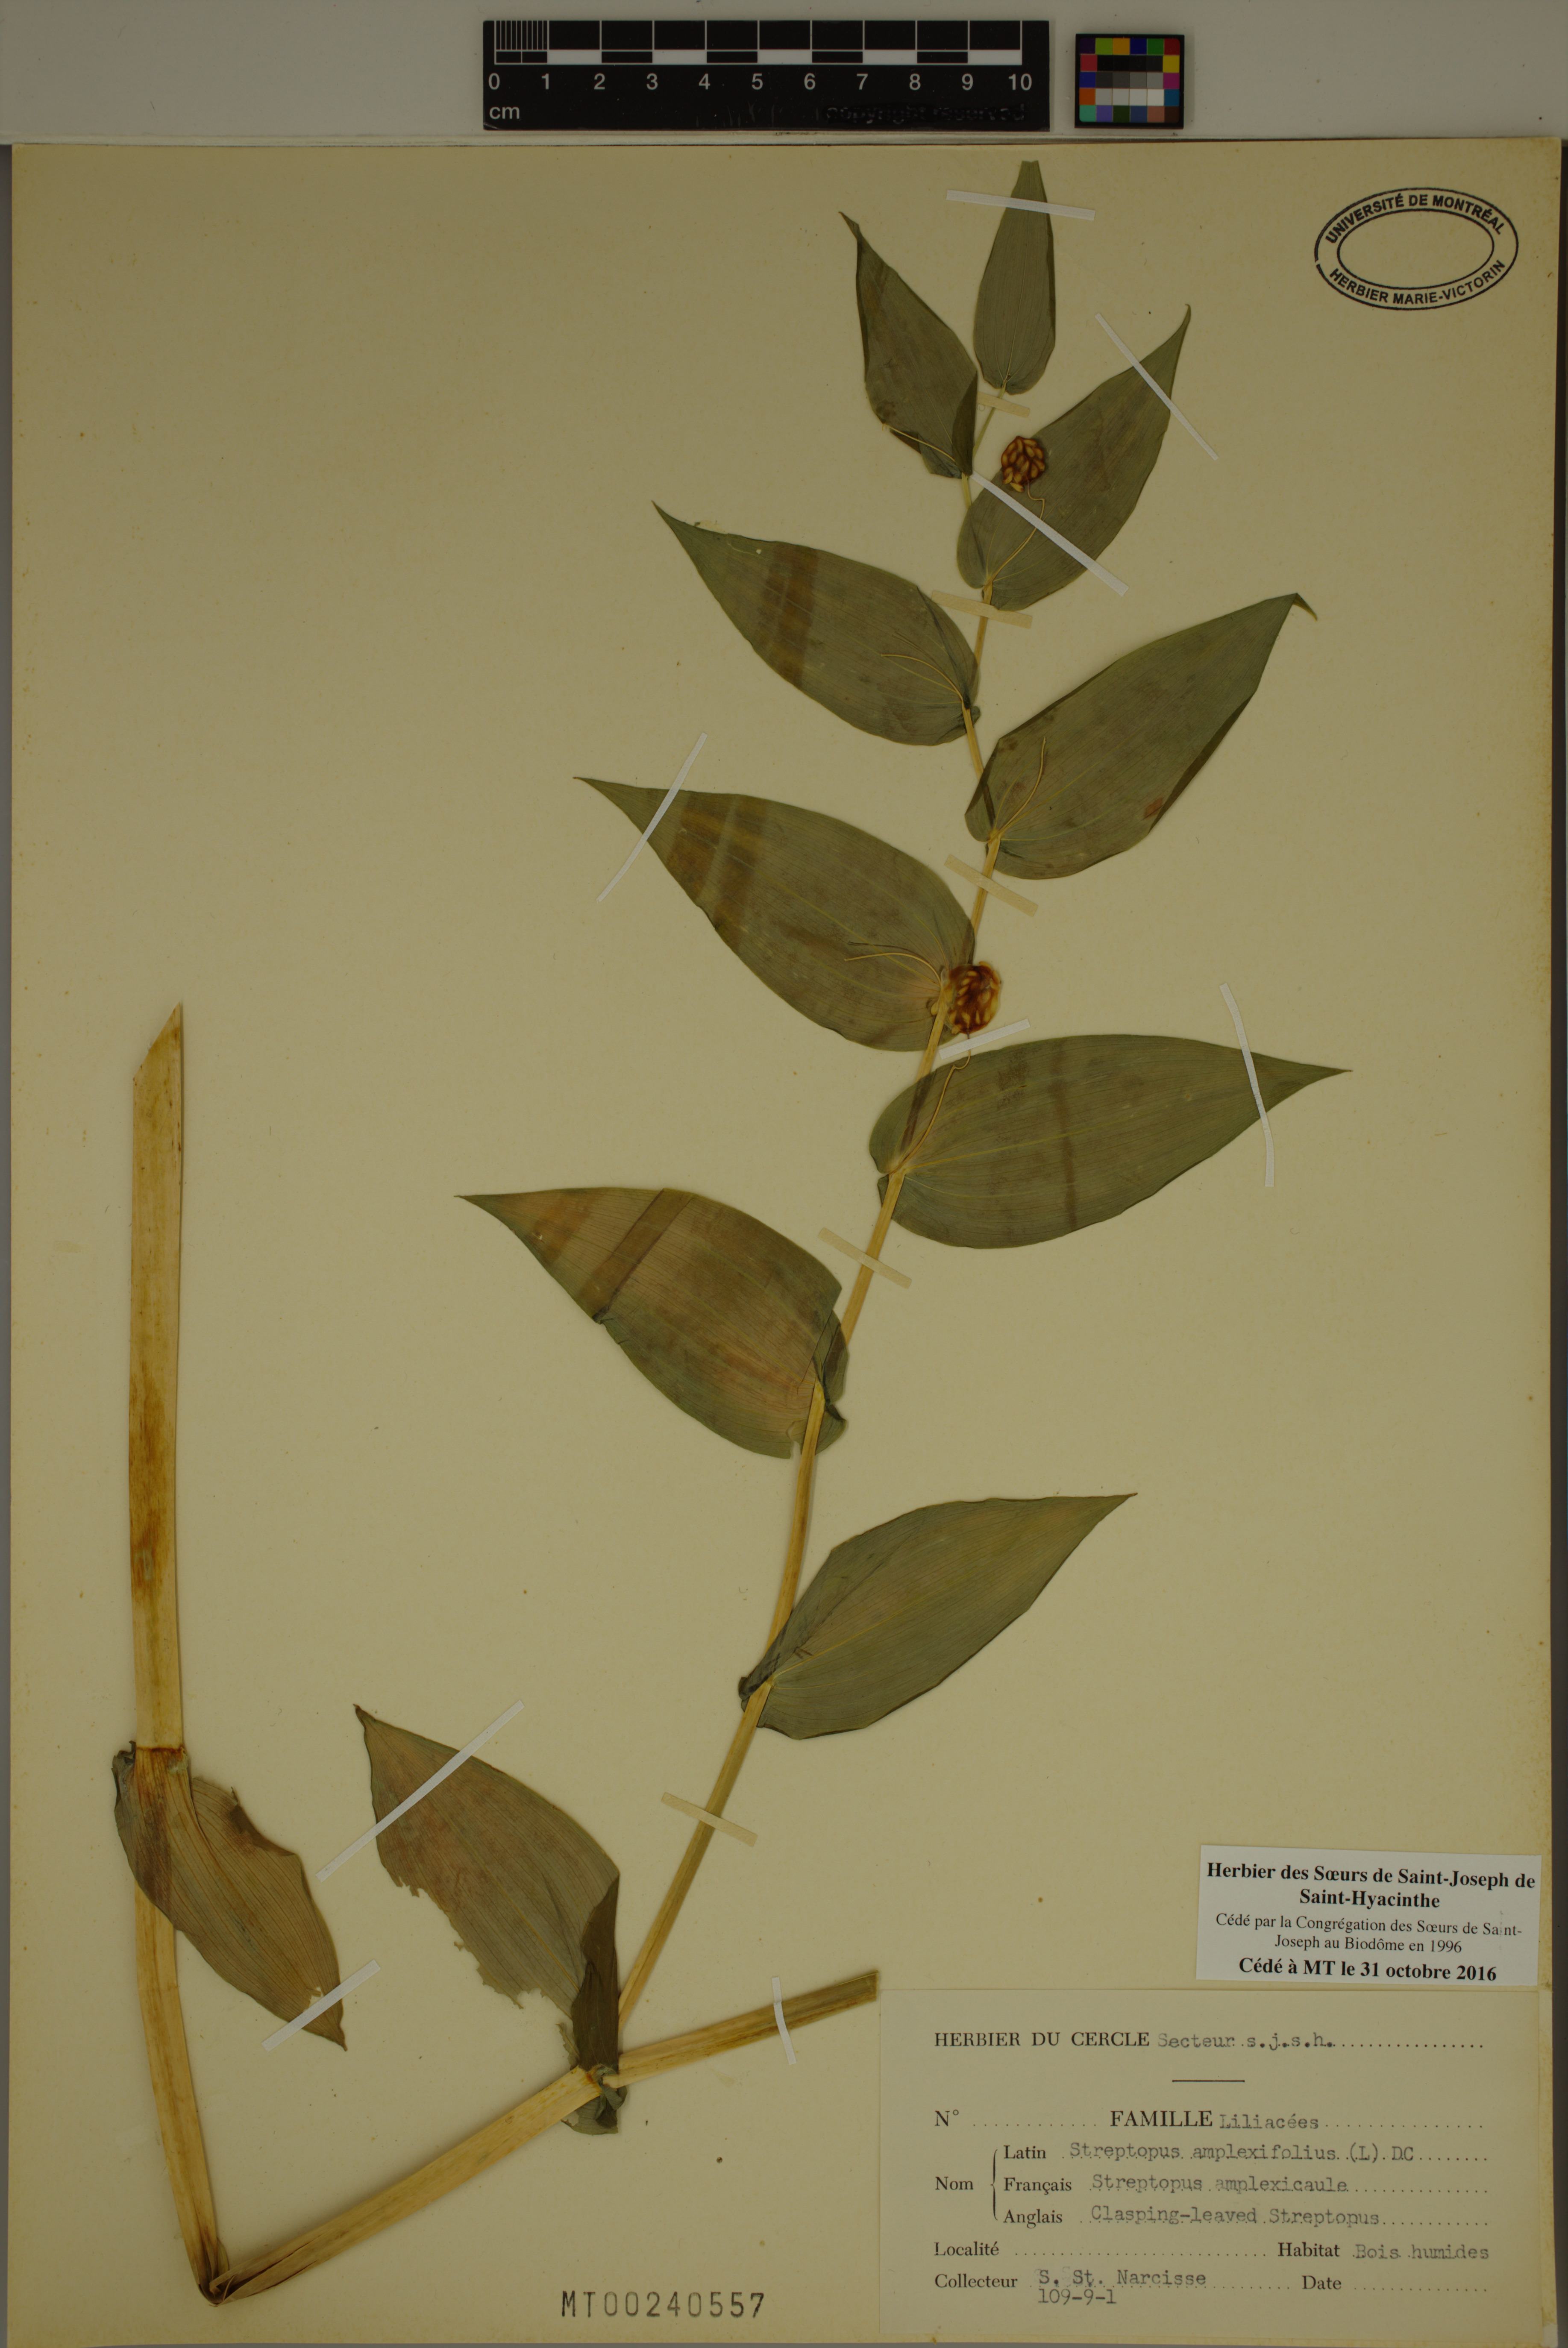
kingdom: Plantae
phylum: Tracheophyta
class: Liliopsida
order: Liliales
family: Liliaceae
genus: Streptopus
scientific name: Streptopus amplexifolius
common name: Clasp twisted stalk
